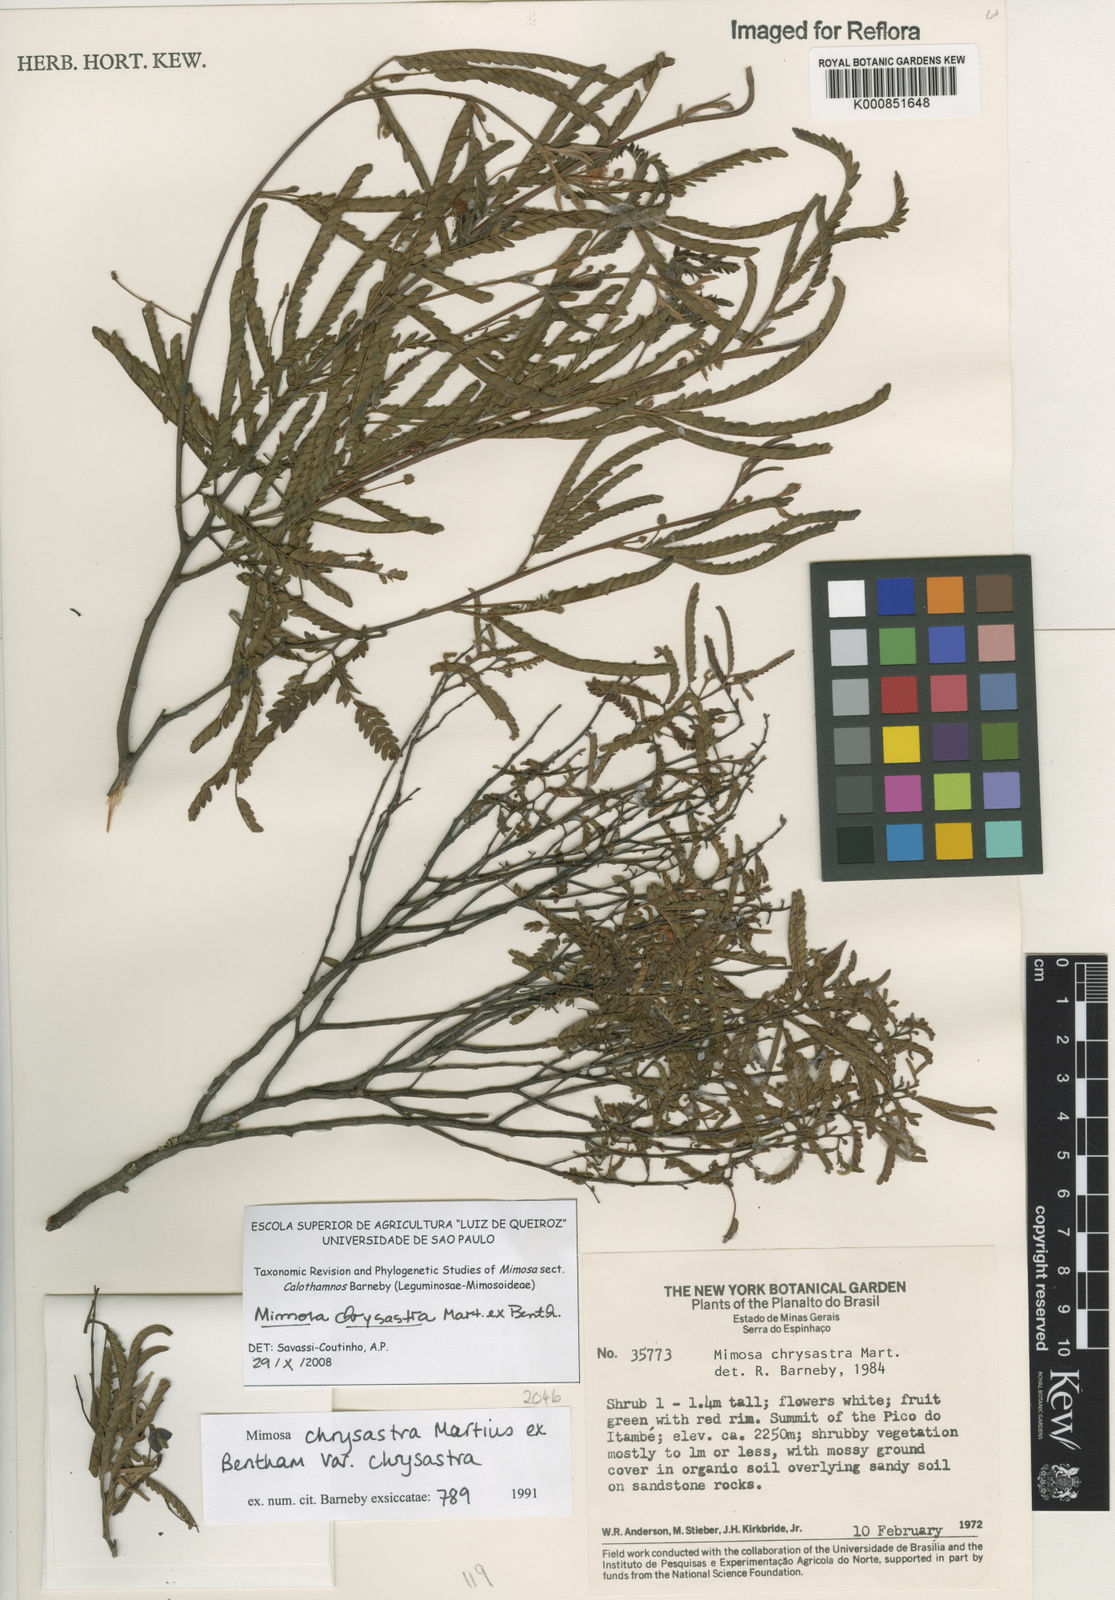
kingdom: Plantae
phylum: Tracheophyta
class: Magnoliopsida
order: Fabales
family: Fabaceae
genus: Mimosa
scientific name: Mimosa chrysastra
